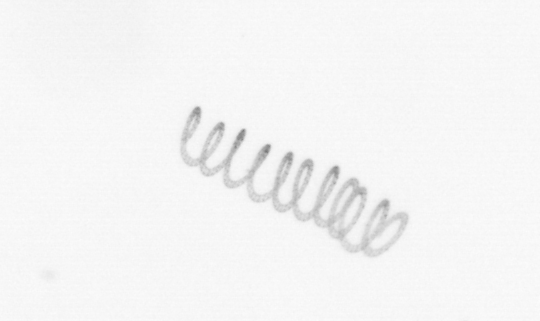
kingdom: Chromista
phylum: Ochrophyta
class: Bacillariophyceae
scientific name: Bacillariophyceae
